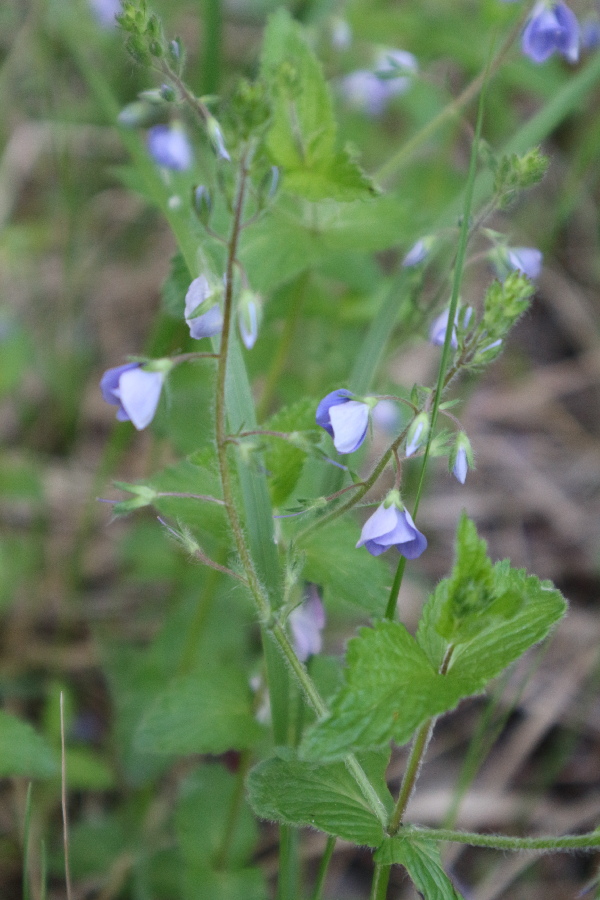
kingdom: Plantae
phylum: Tracheophyta
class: Magnoliopsida
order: Lamiales
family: Plantaginaceae
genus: Veronica
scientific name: Veronica chamaedrys
